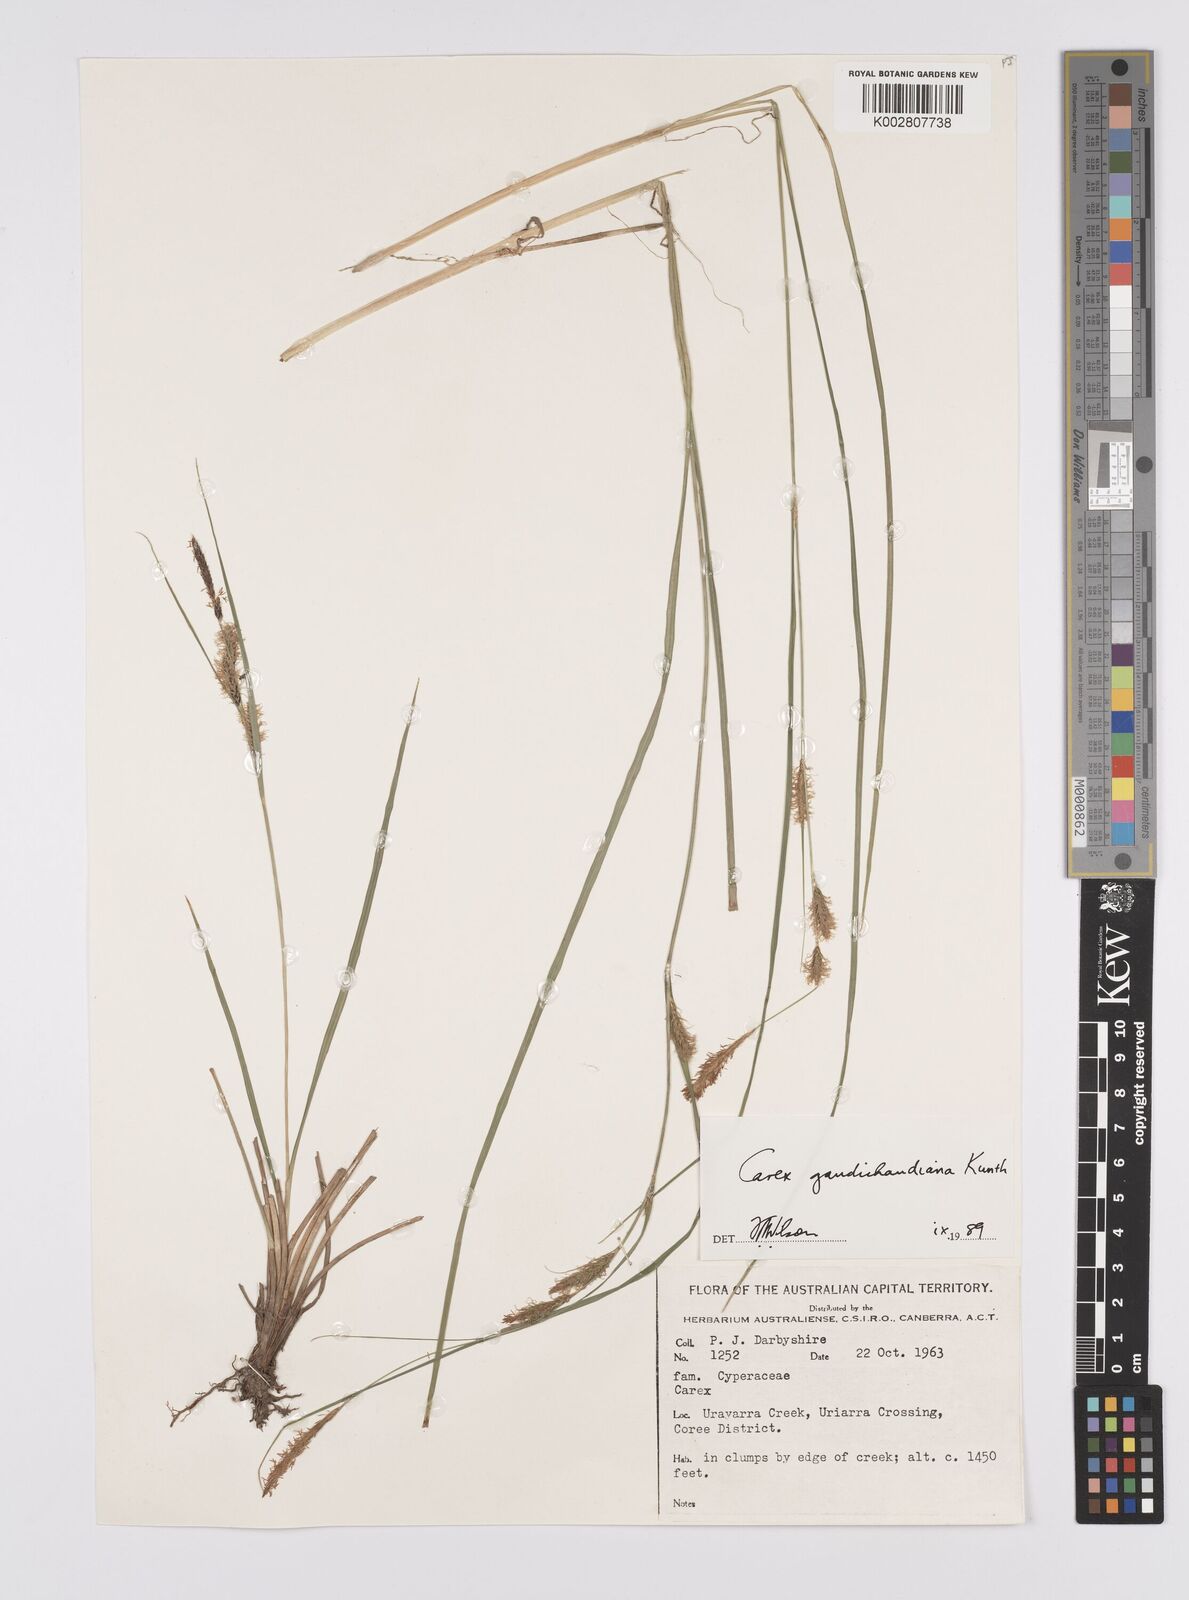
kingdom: Plantae
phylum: Tracheophyta
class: Liliopsida
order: Poales
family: Cyperaceae
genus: Carex
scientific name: Carex gaudichaudiana
